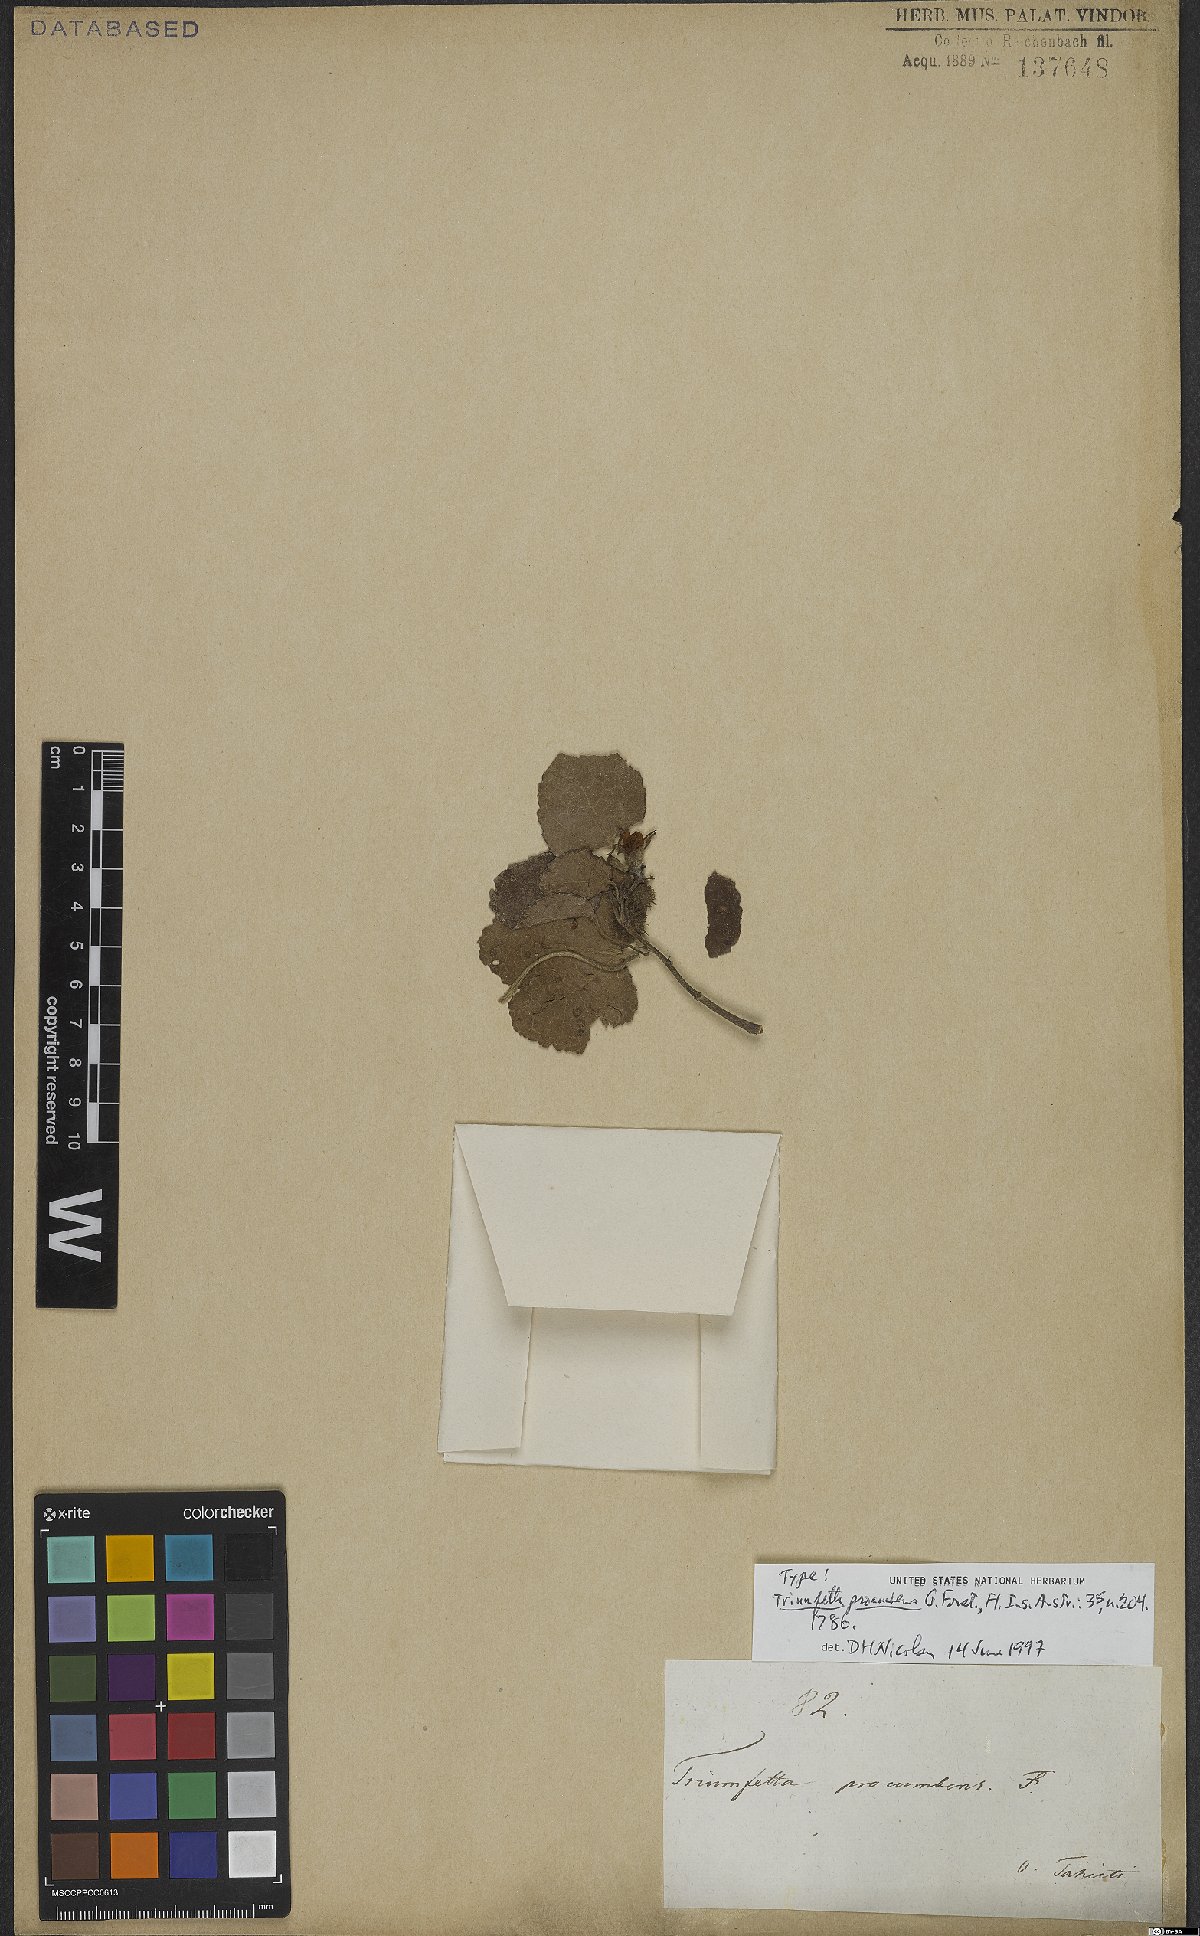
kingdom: Plantae
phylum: Tracheophyta
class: Magnoliopsida
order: Malvales
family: Malvaceae
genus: Triumfetta
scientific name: Triumfetta procumbens
